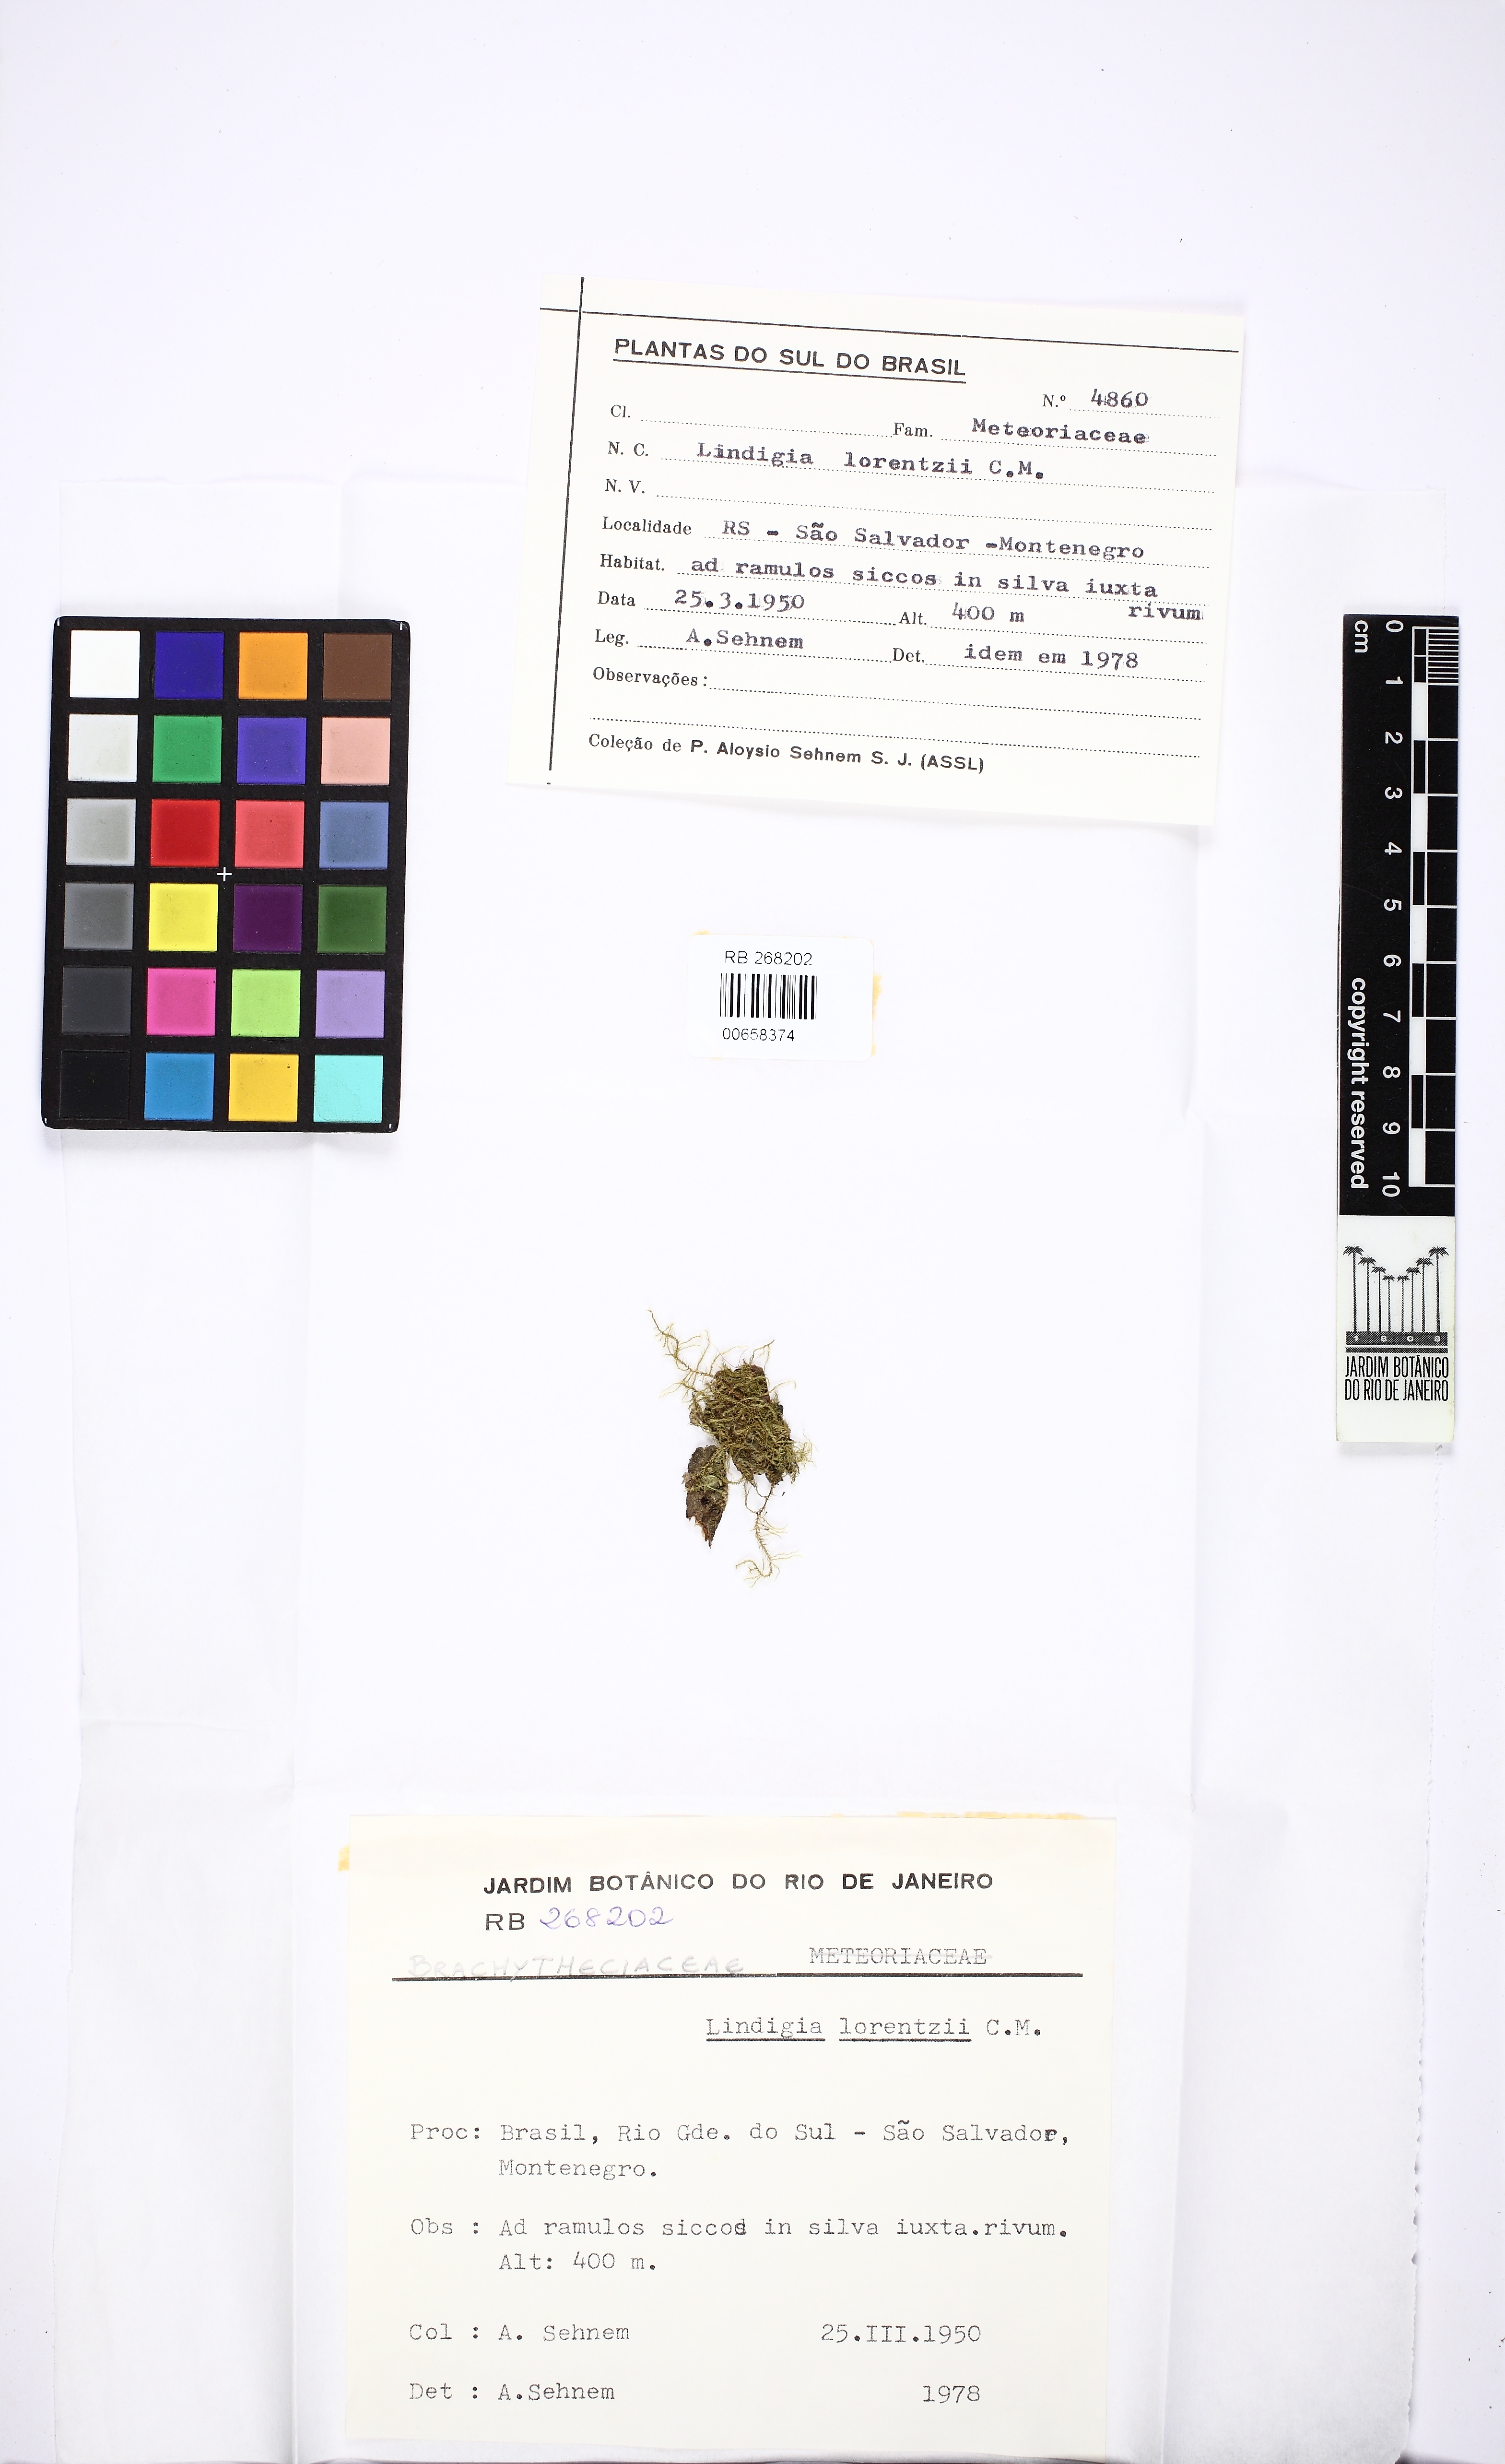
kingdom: Plantae
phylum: Bryophyta
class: Bryopsida
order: Hypnales
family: Brachytheciaceae
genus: Aerolindigia
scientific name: Aerolindigia capillacea
